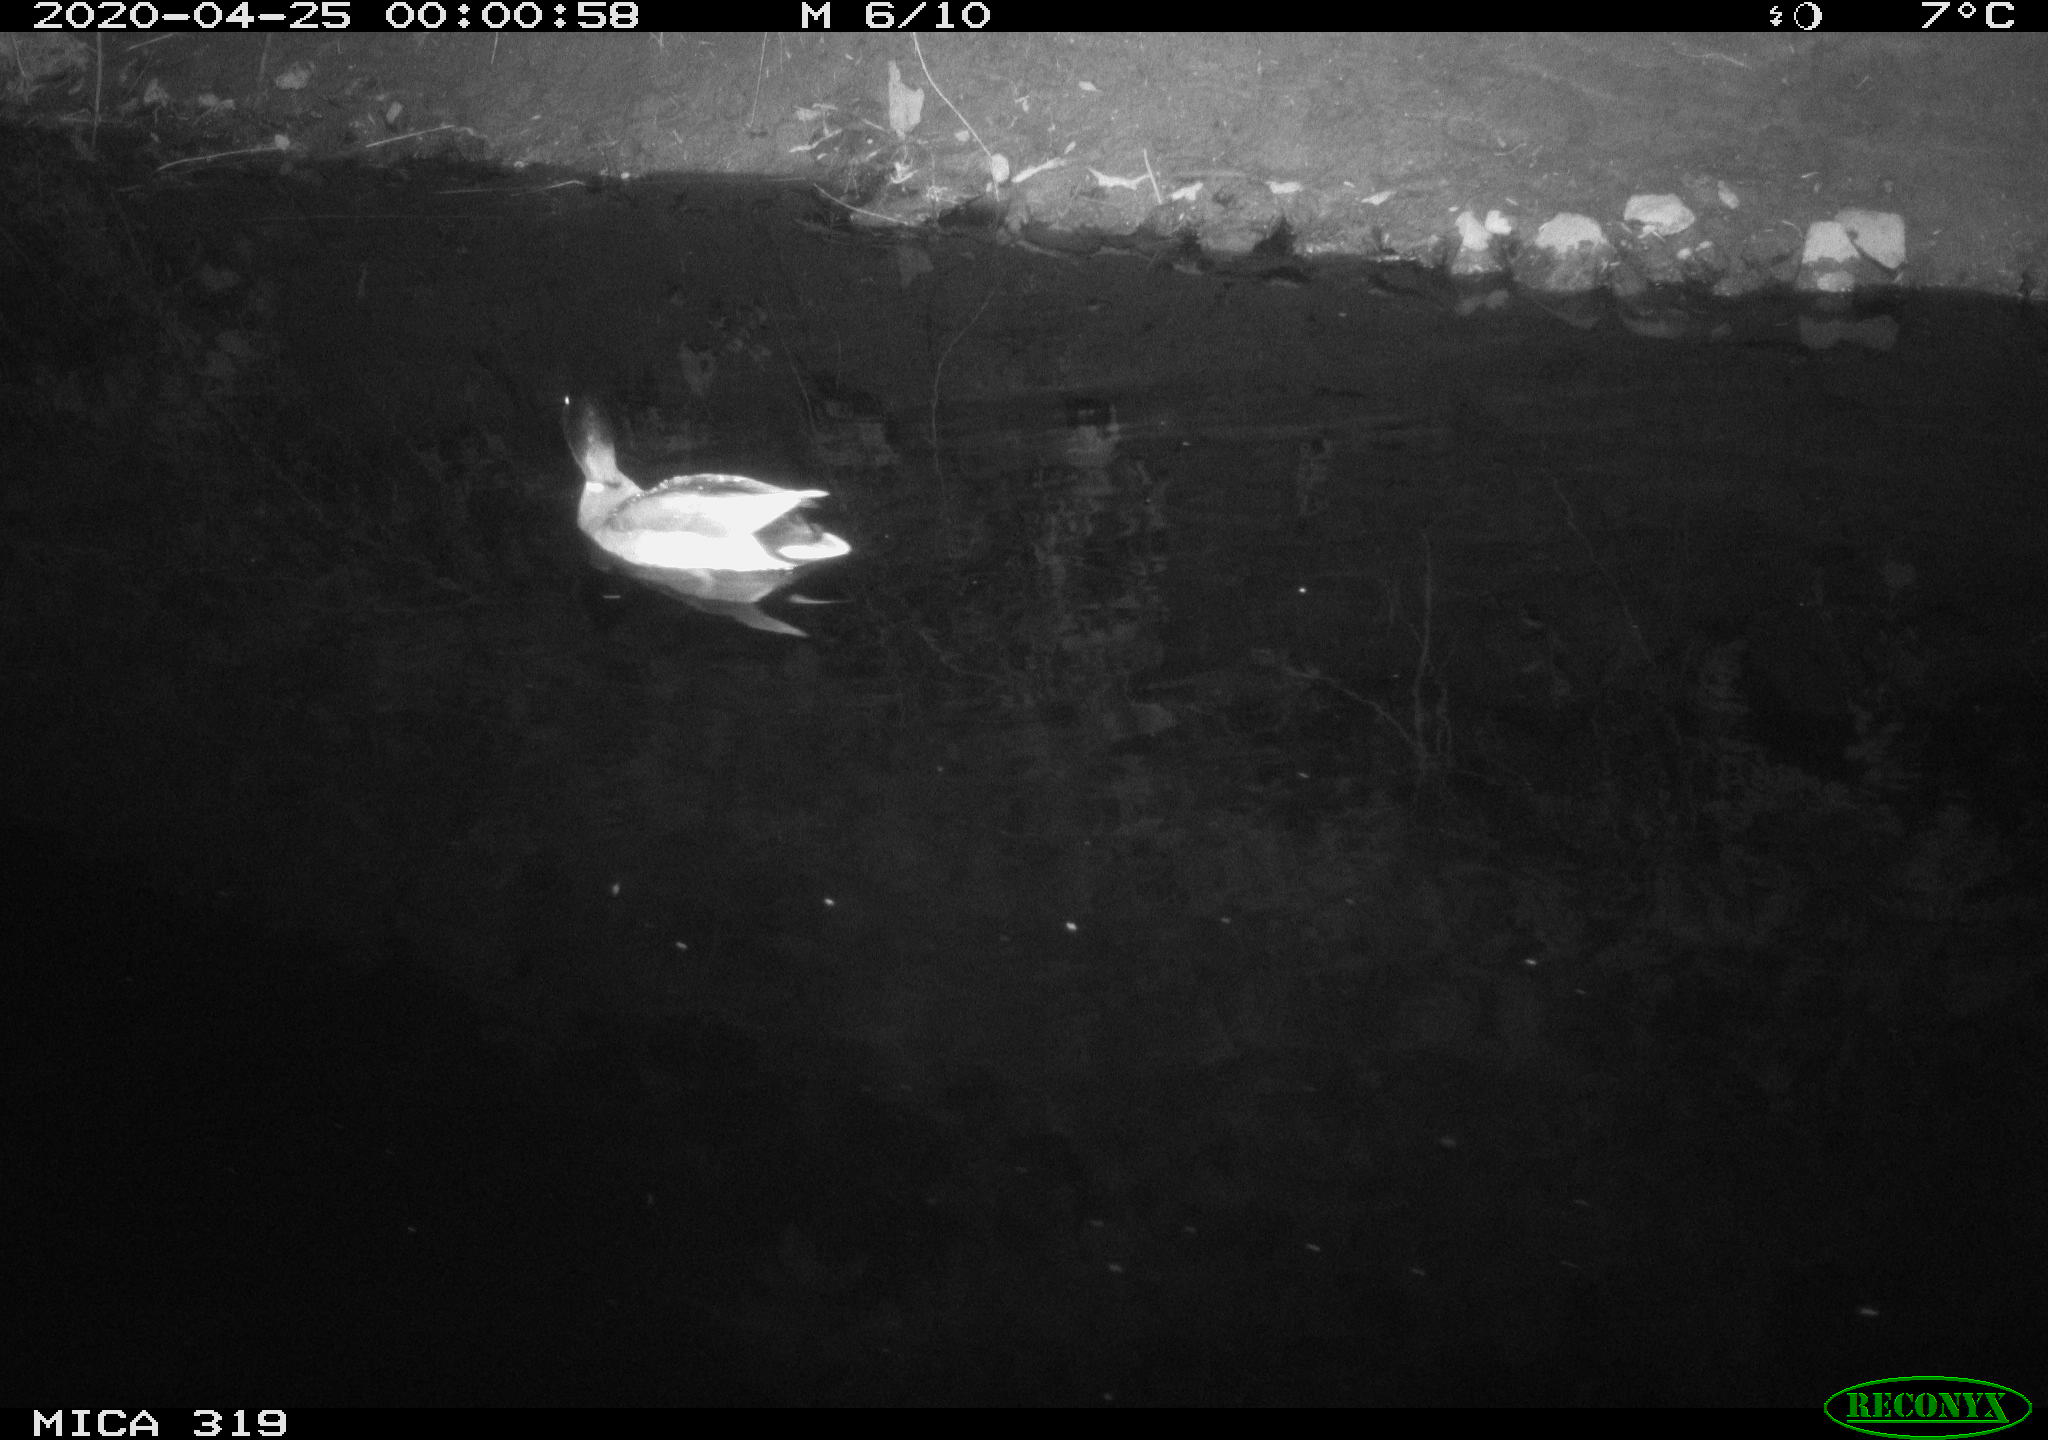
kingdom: Animalia
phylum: Chordata
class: Aves
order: Anseriformes
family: Anatidae
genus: Anas
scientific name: Anas platyrhynchos
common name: Mallard
